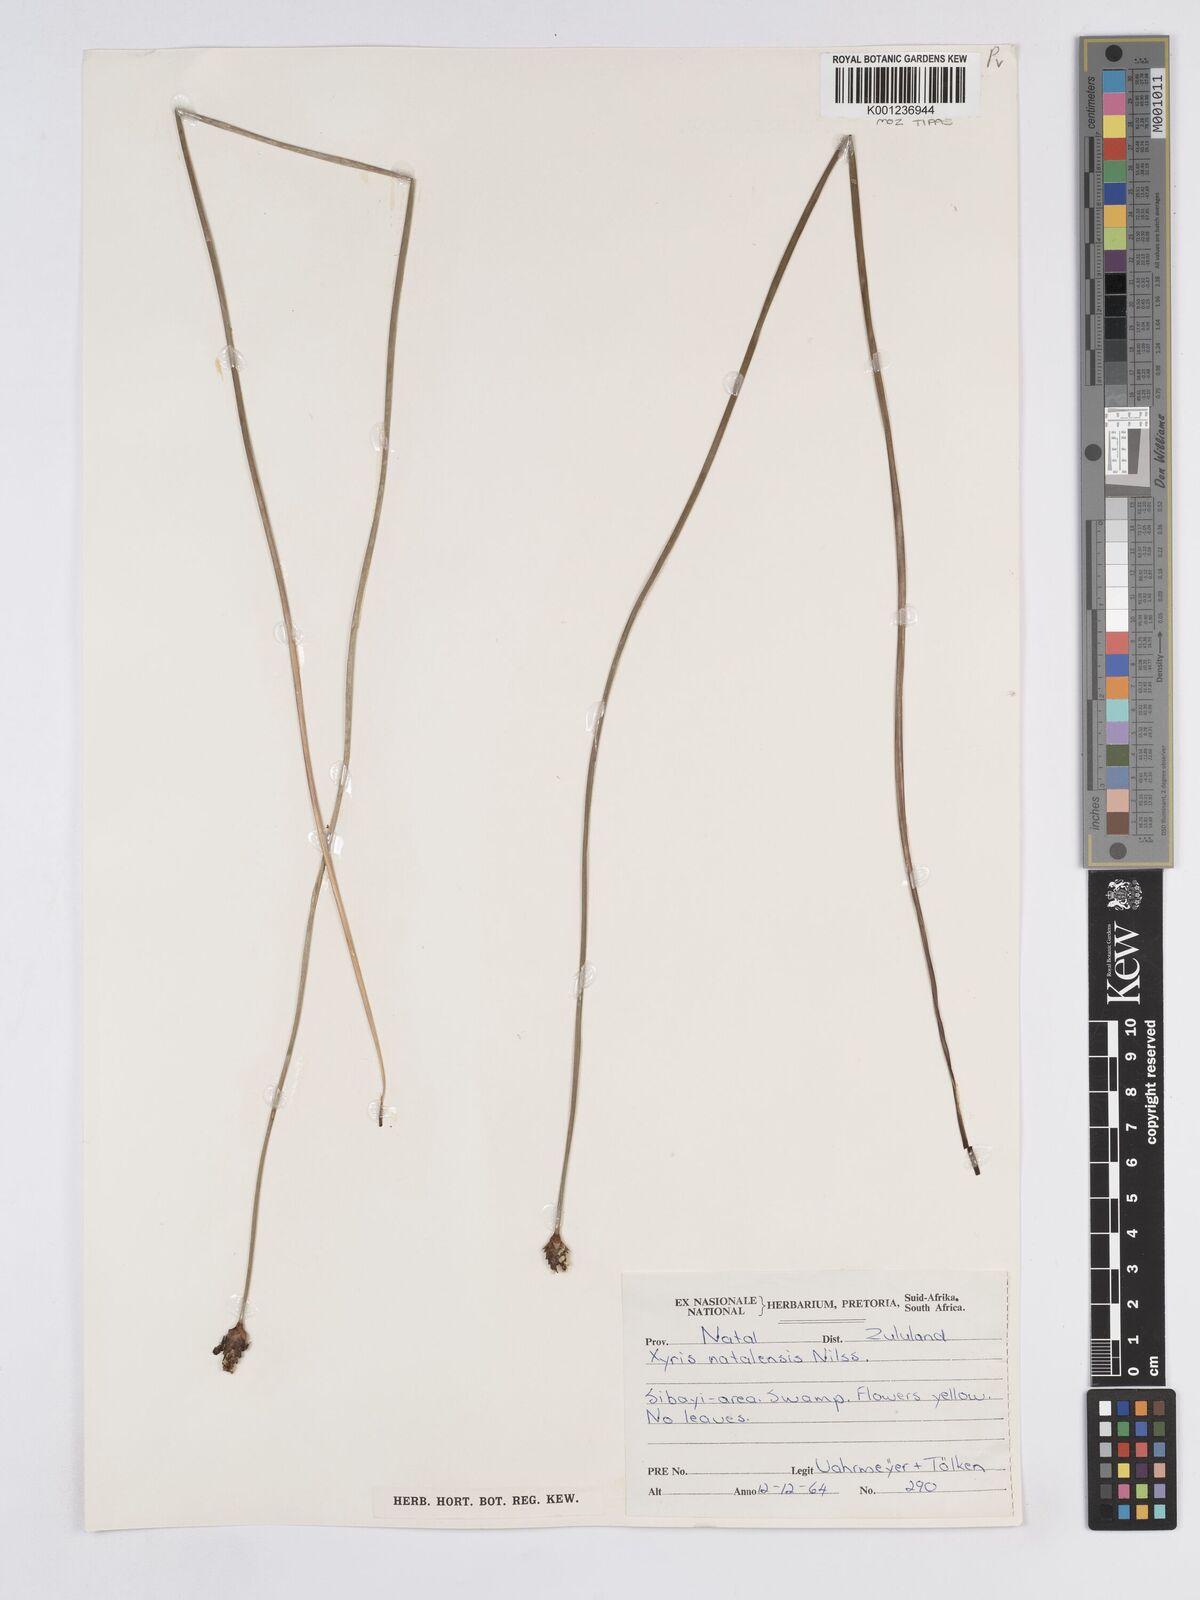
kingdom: Plantae
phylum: Tracheophyta
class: Liliopsida
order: Poales
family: Xyridaceae
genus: Xyris
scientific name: Xyris natalensis
